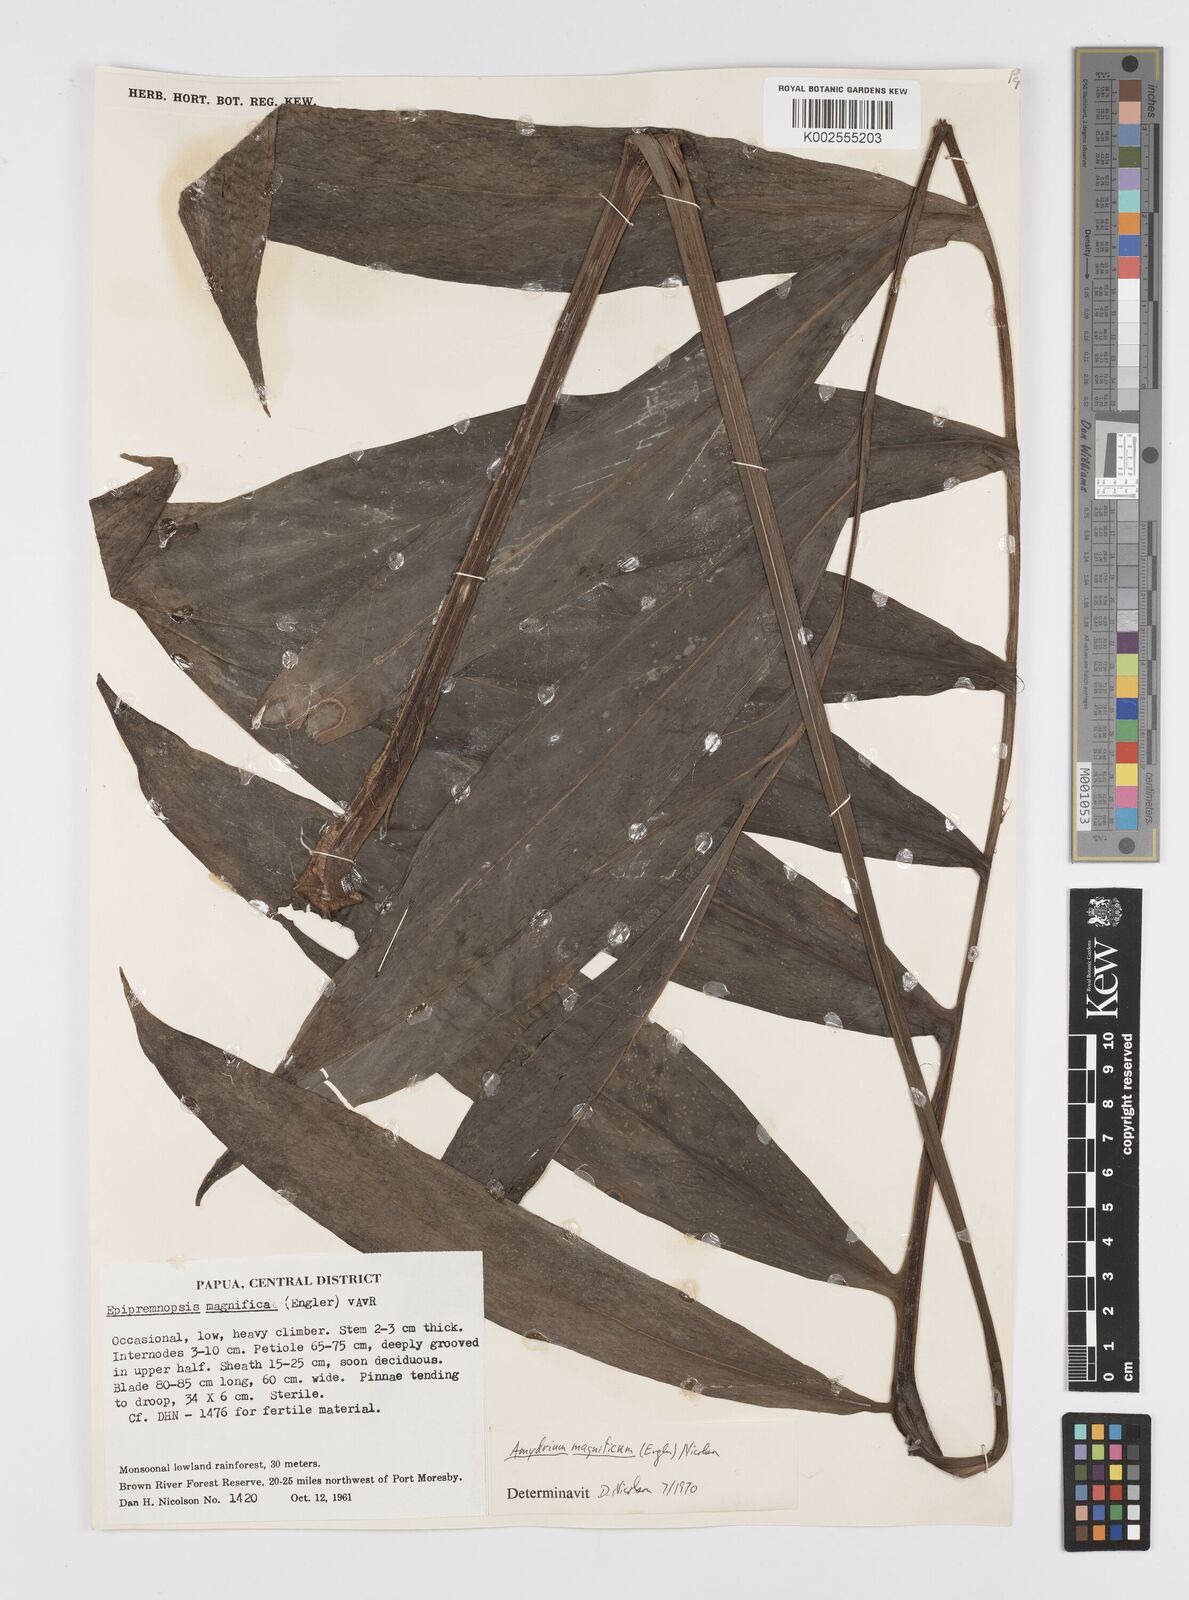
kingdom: Plantae
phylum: Tracheophyta
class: Liliopsida
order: Alismatales
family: Araceae
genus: Amydrium
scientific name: Amydrium zippelianum
